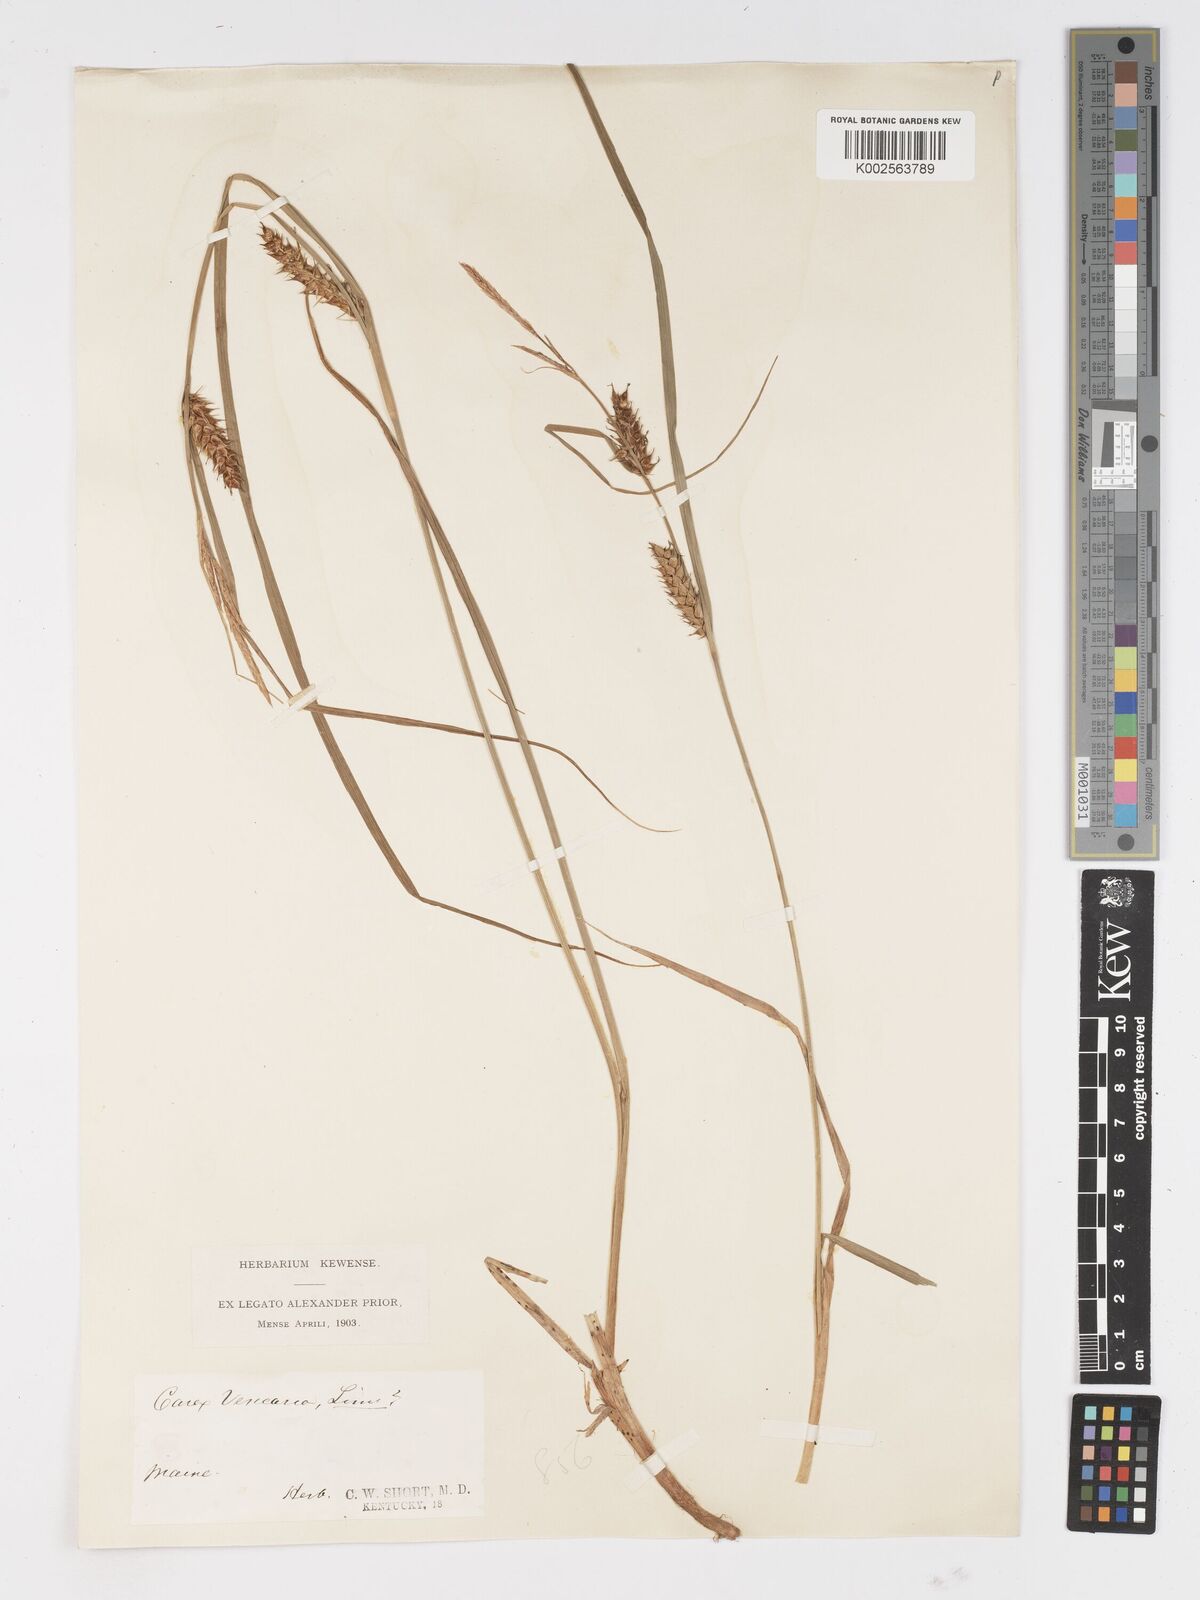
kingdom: Plantae
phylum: Tracheophyta
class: Liliopsida
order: Poales
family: Cyperaceae
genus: Carex
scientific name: Carex vesicaria
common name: Bladder-sedge
